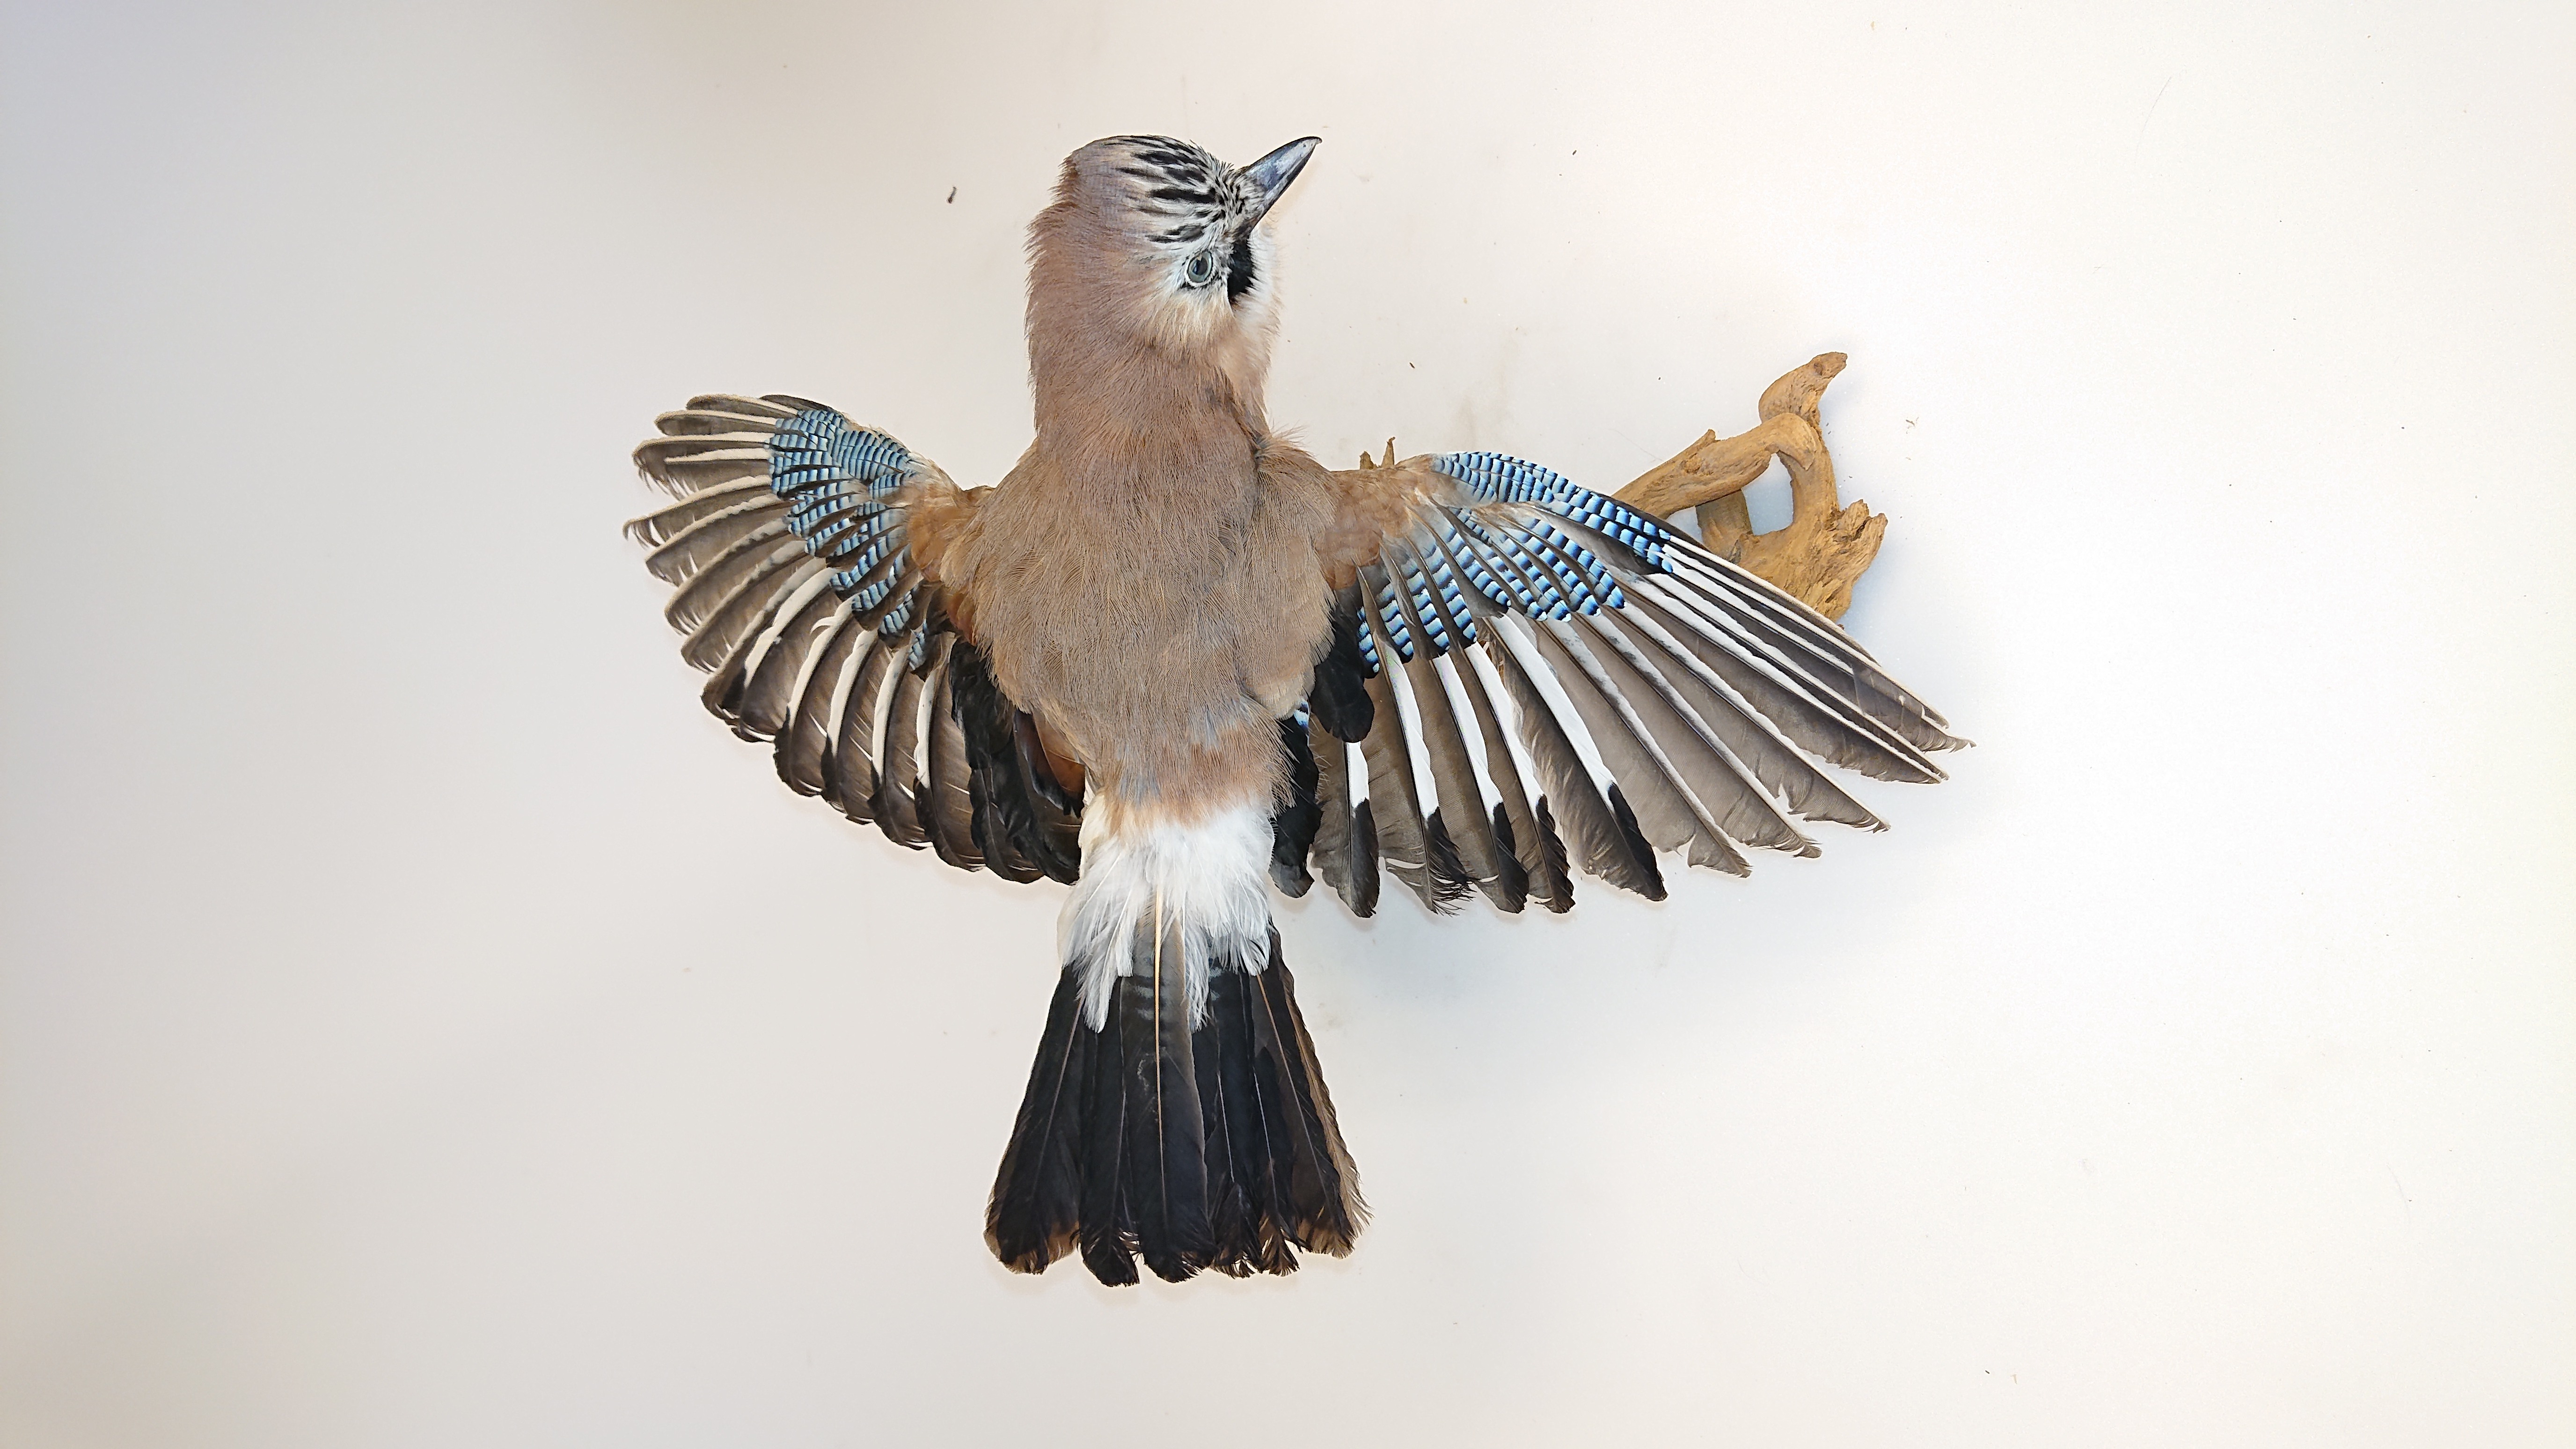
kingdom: Animalia
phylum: Chordata
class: Aves
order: Passeriformes
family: Corvidae
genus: Garrulus
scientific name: Garrulus glandarius
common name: Eurasian jay
